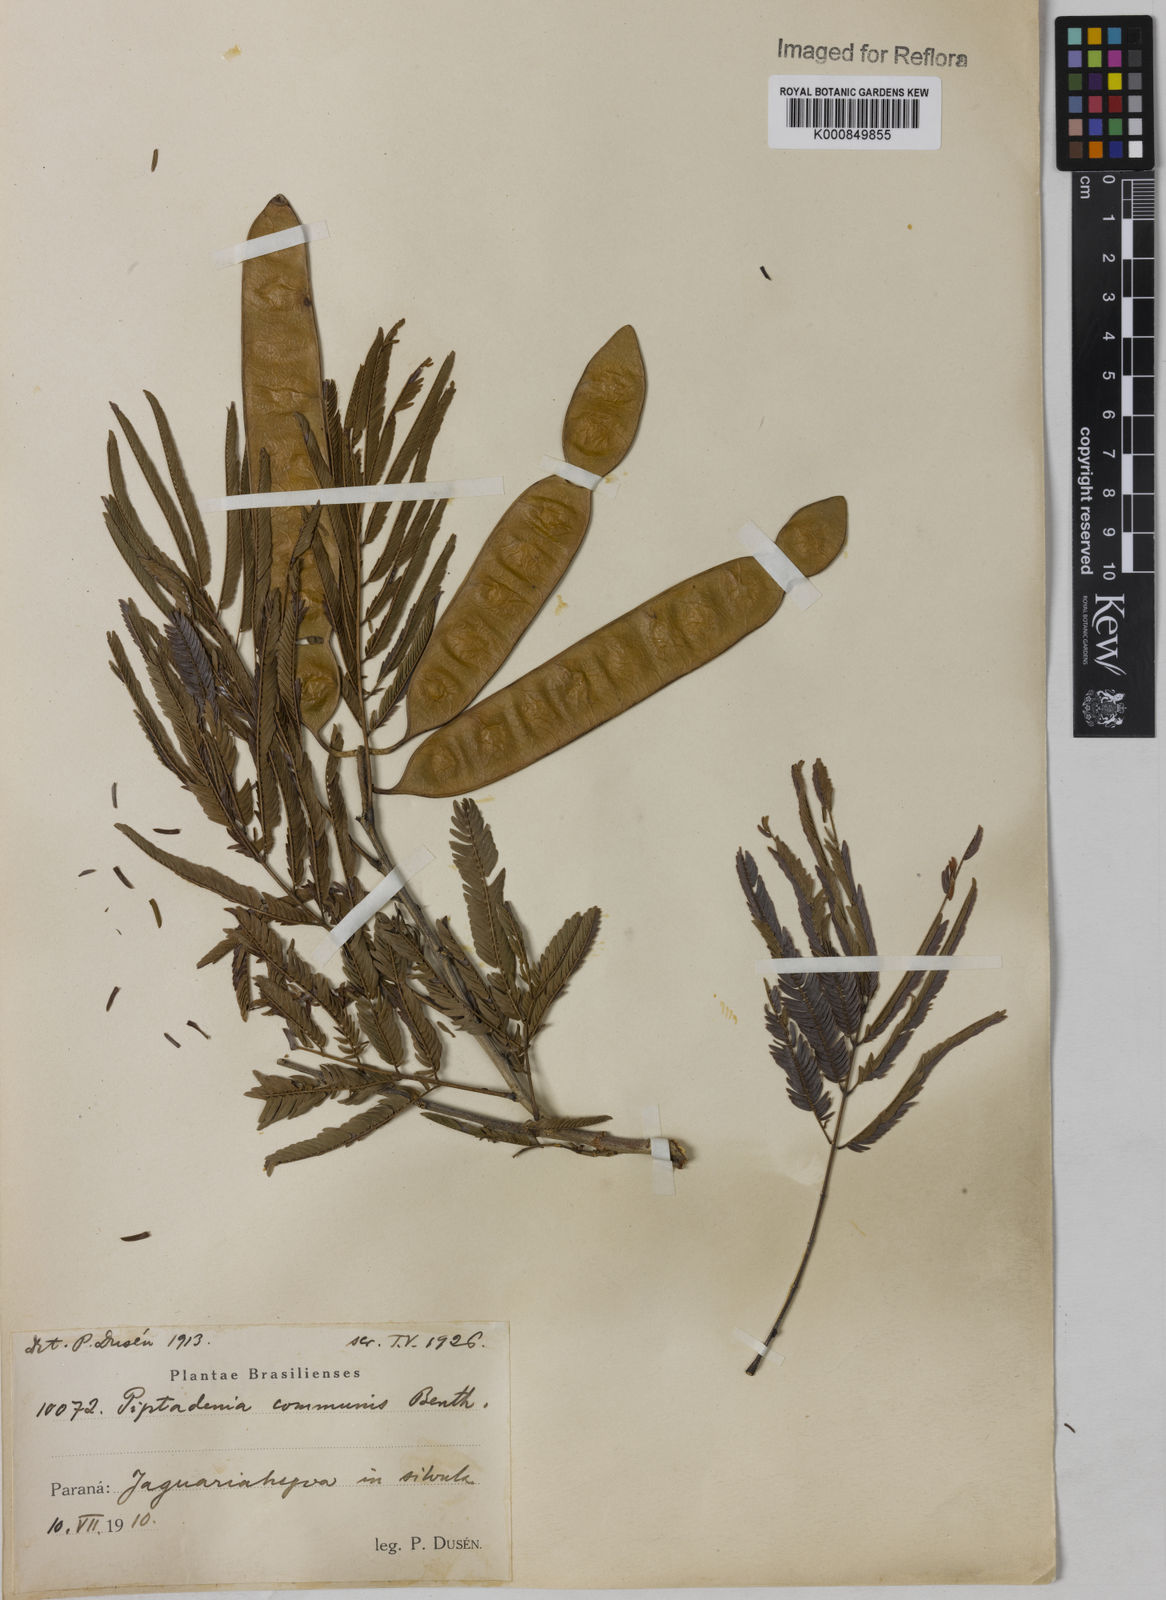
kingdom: Plantae
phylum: Tracheophyta
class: Magnoliopsida
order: Fabales
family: Fabaceae
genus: Piptadenia
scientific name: Piptadenia gonoacantha
